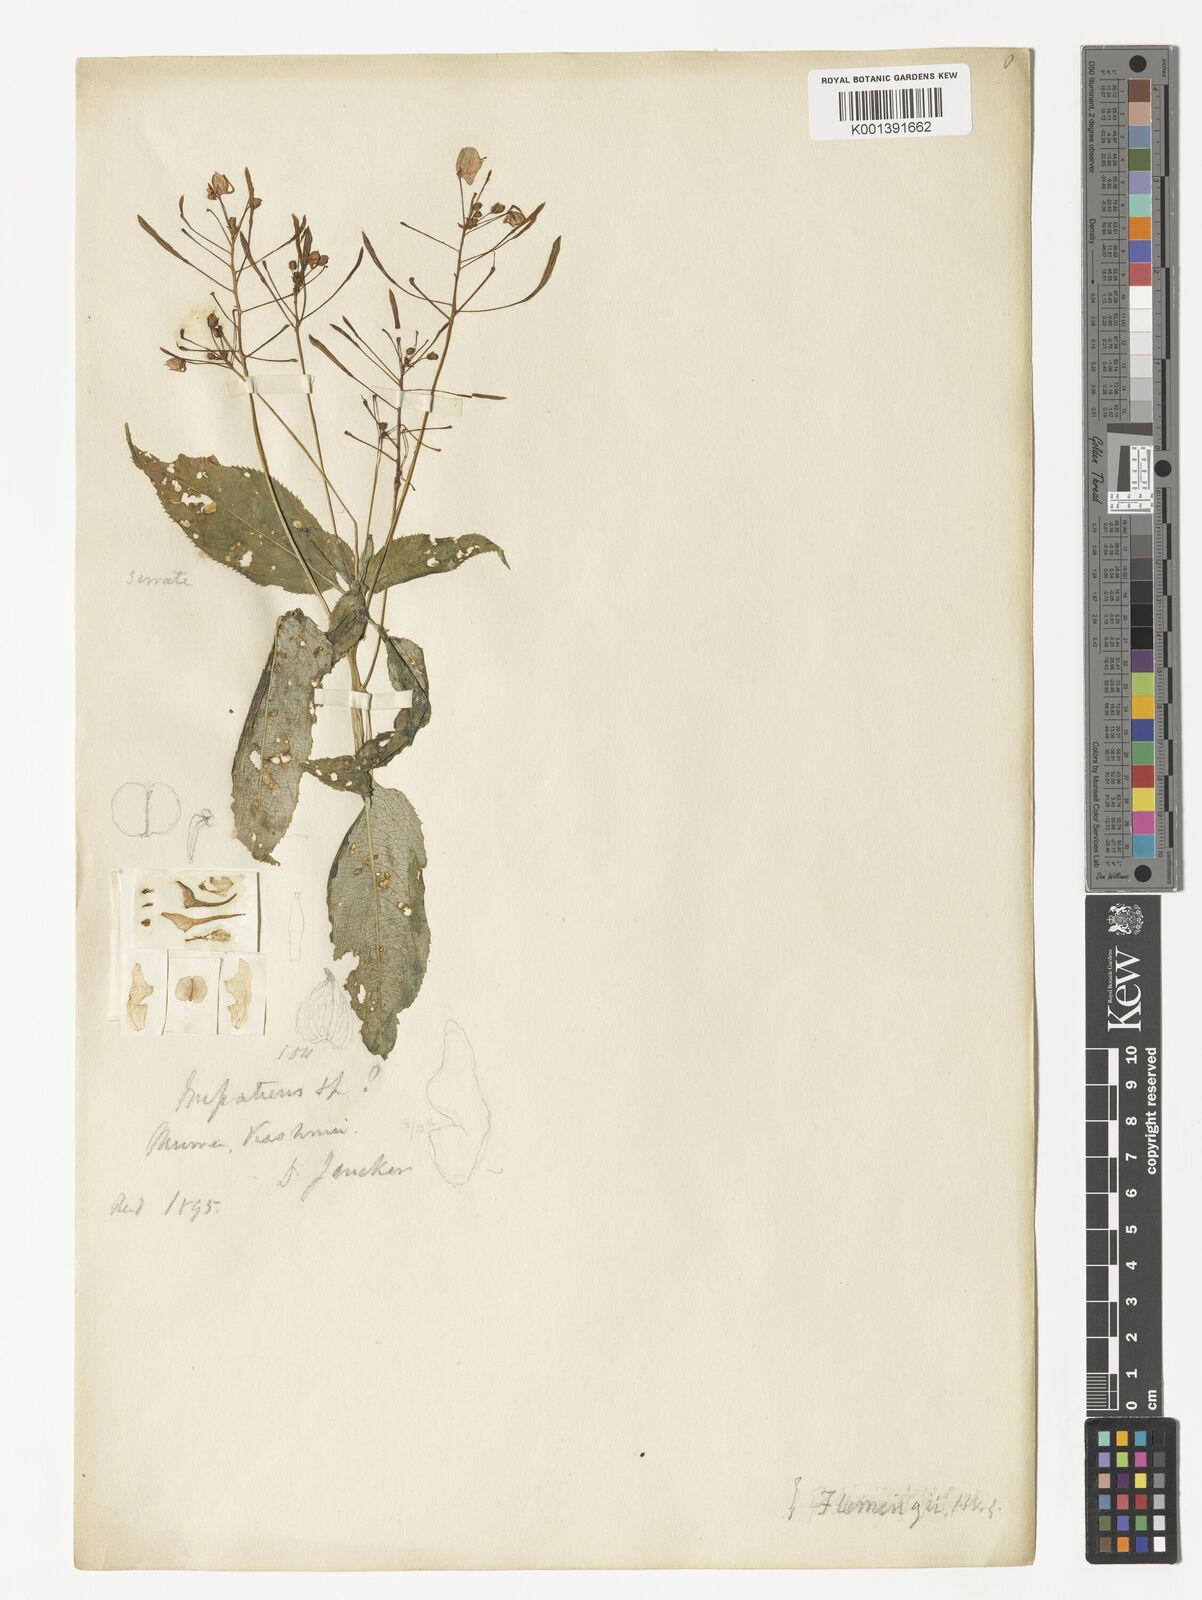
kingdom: Plantae
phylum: Tracheophyta
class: Magnoliopsida
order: Ericales
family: Balsaminaceae
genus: Impatiens
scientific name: Impatiens flemingii
